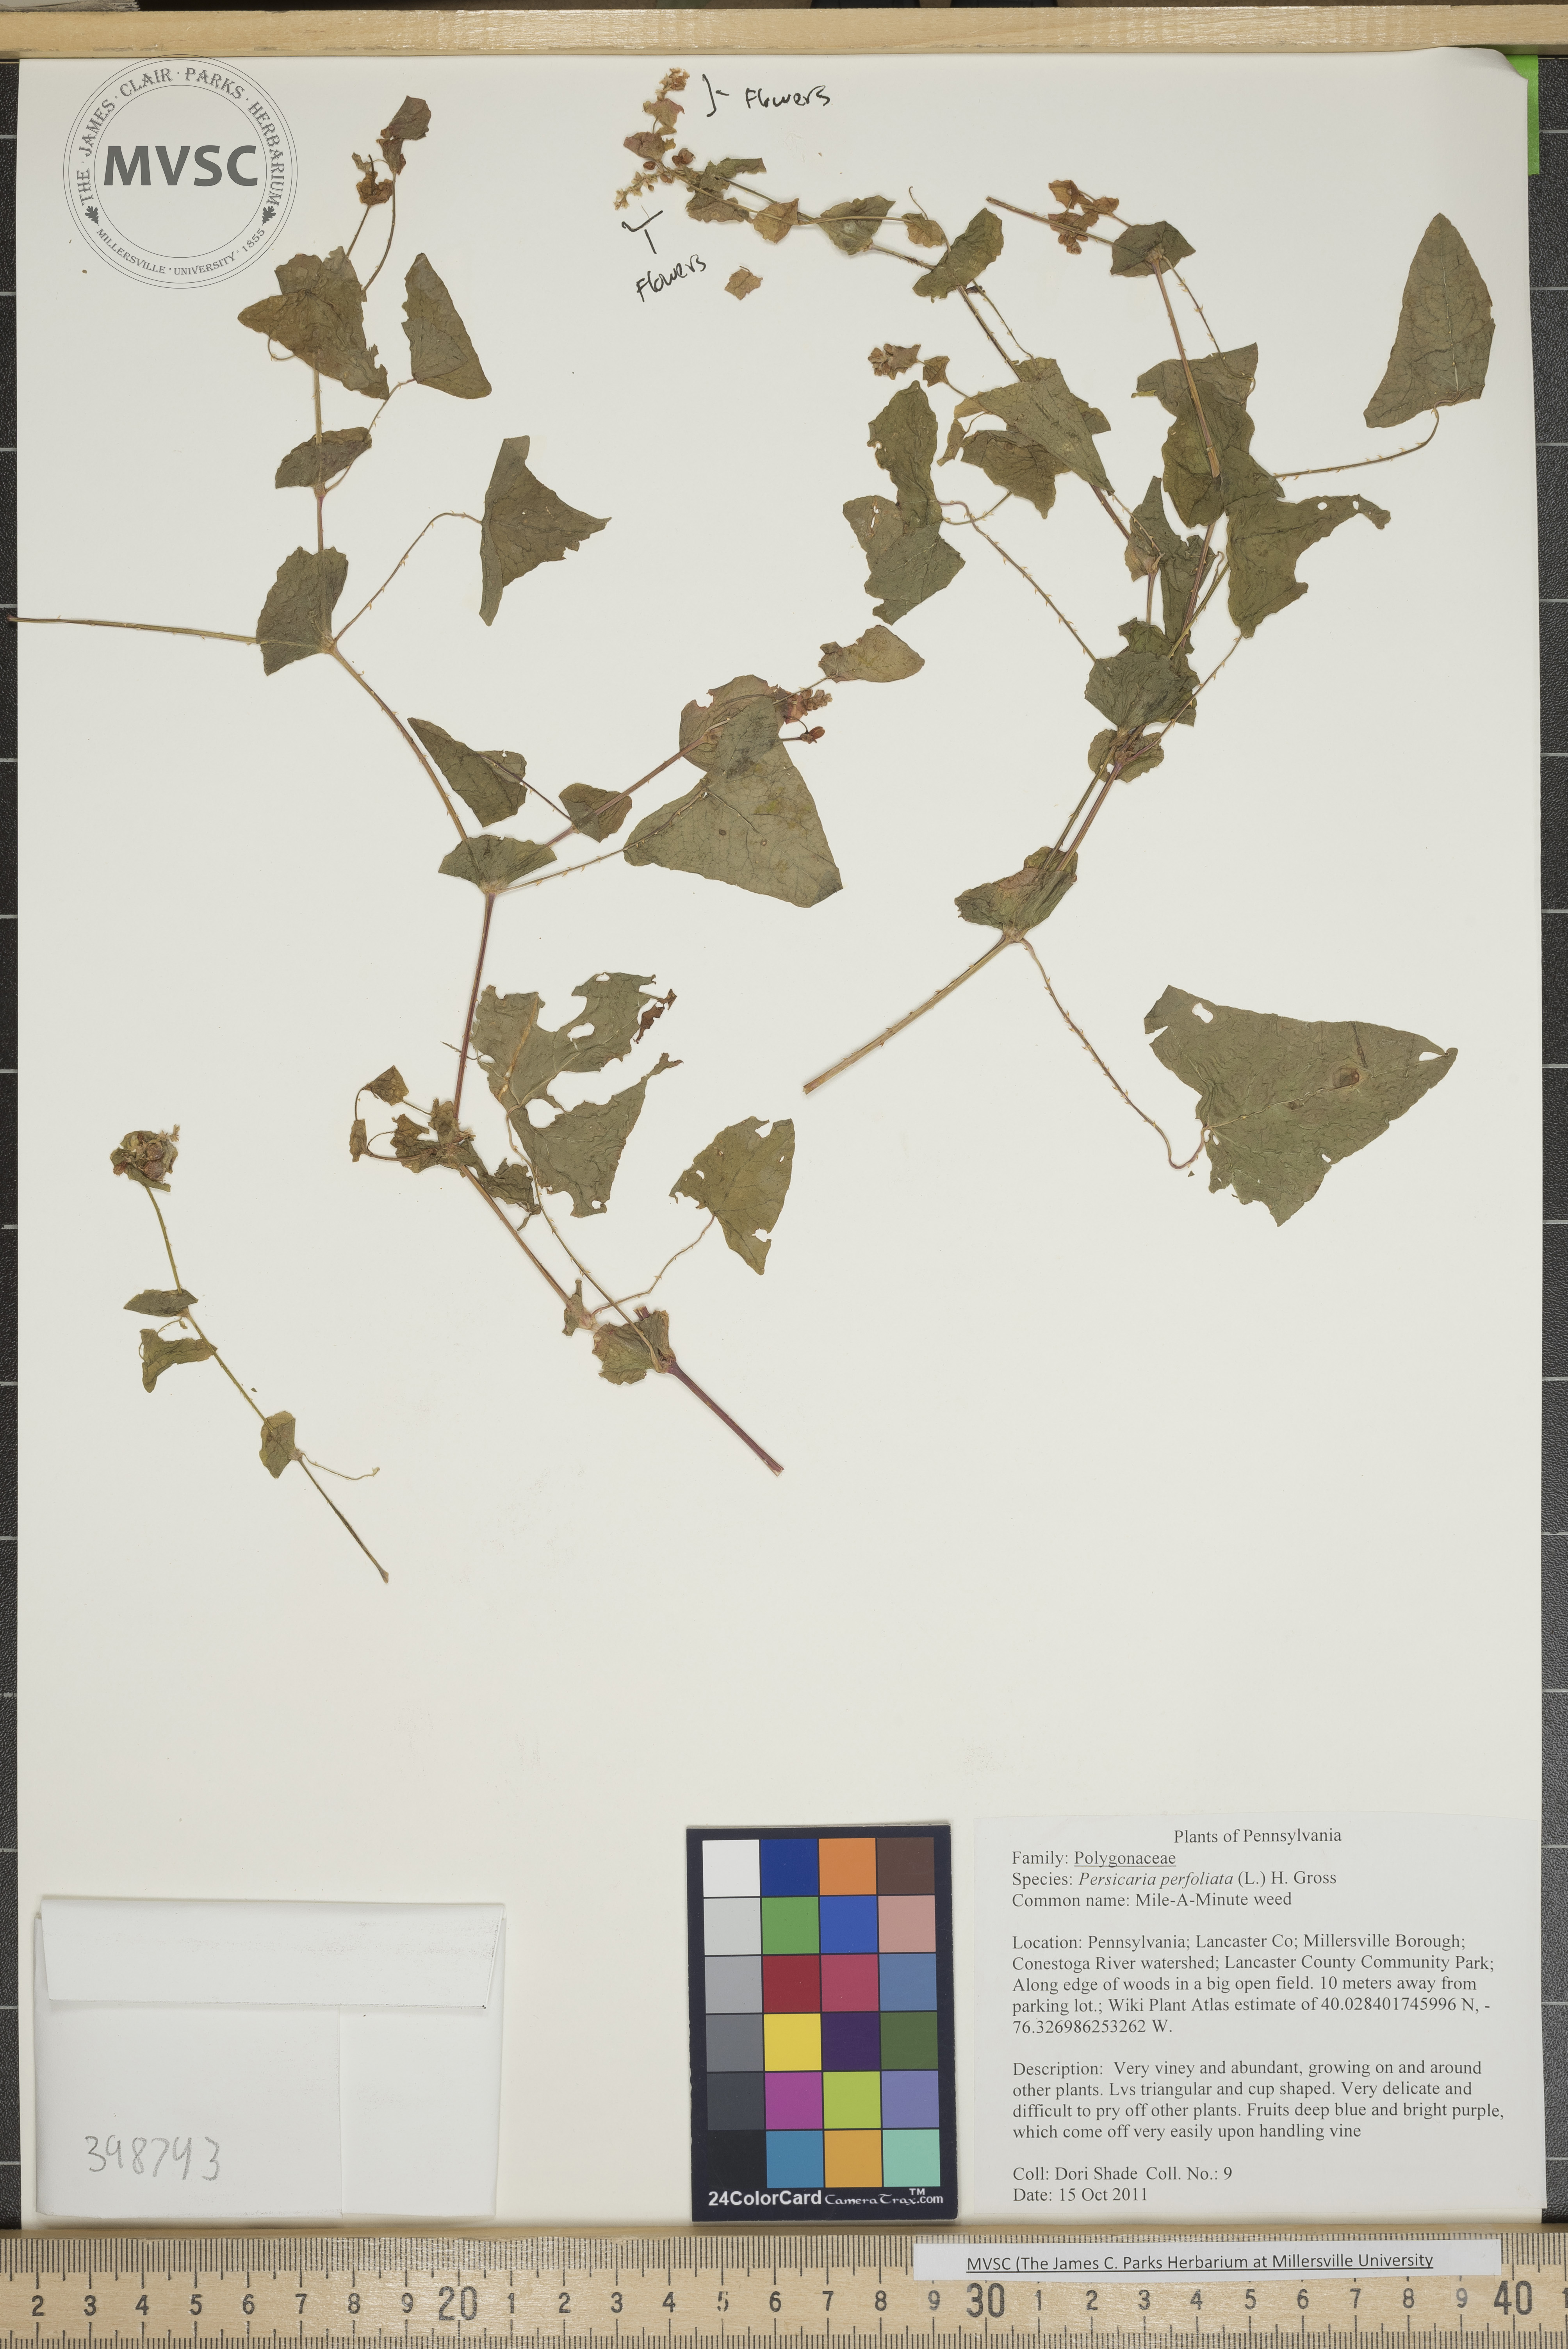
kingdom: Plantae
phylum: Tracheophyta
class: Magnoliopsida
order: Caryophyllales
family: Polygonaceae
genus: Persicaria
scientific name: Persicaria perfoliata
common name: Mile-a-minute weed
